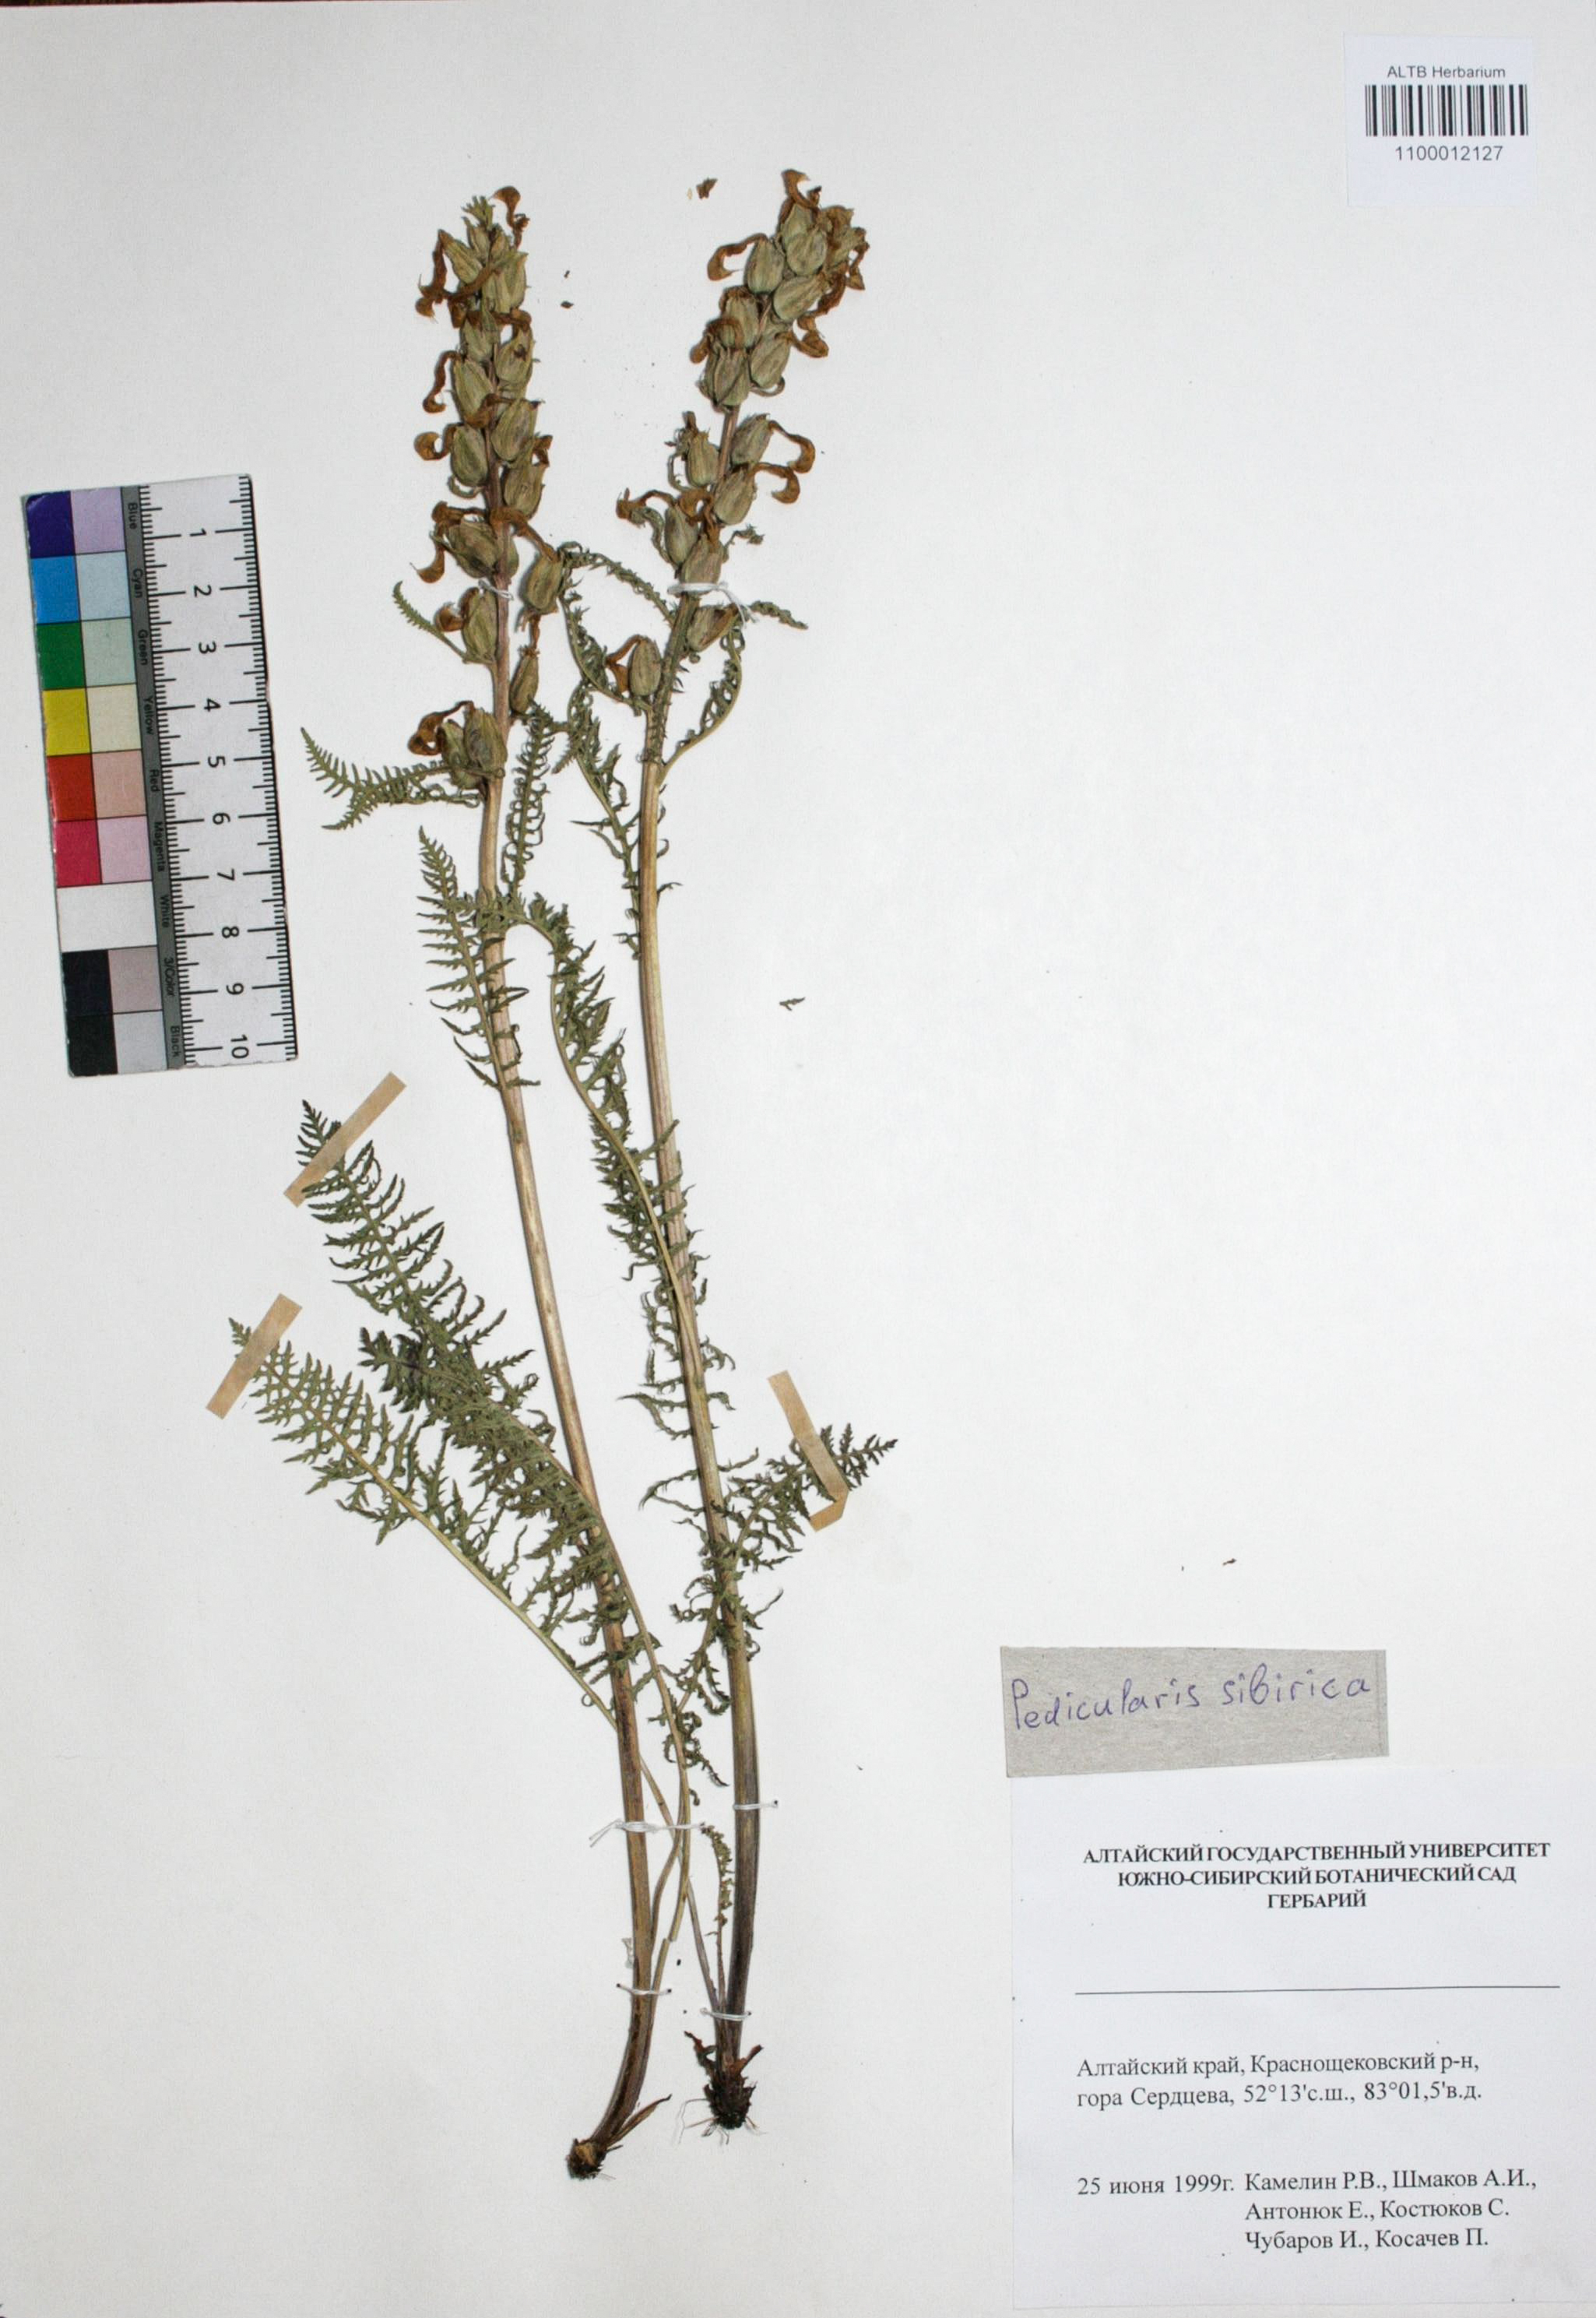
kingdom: Plantae
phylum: Tracheophyta
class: Magnoliopsida
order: Lamiales
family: Orobanchaceae
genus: Pedicularis
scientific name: Pedicularis sibirica
